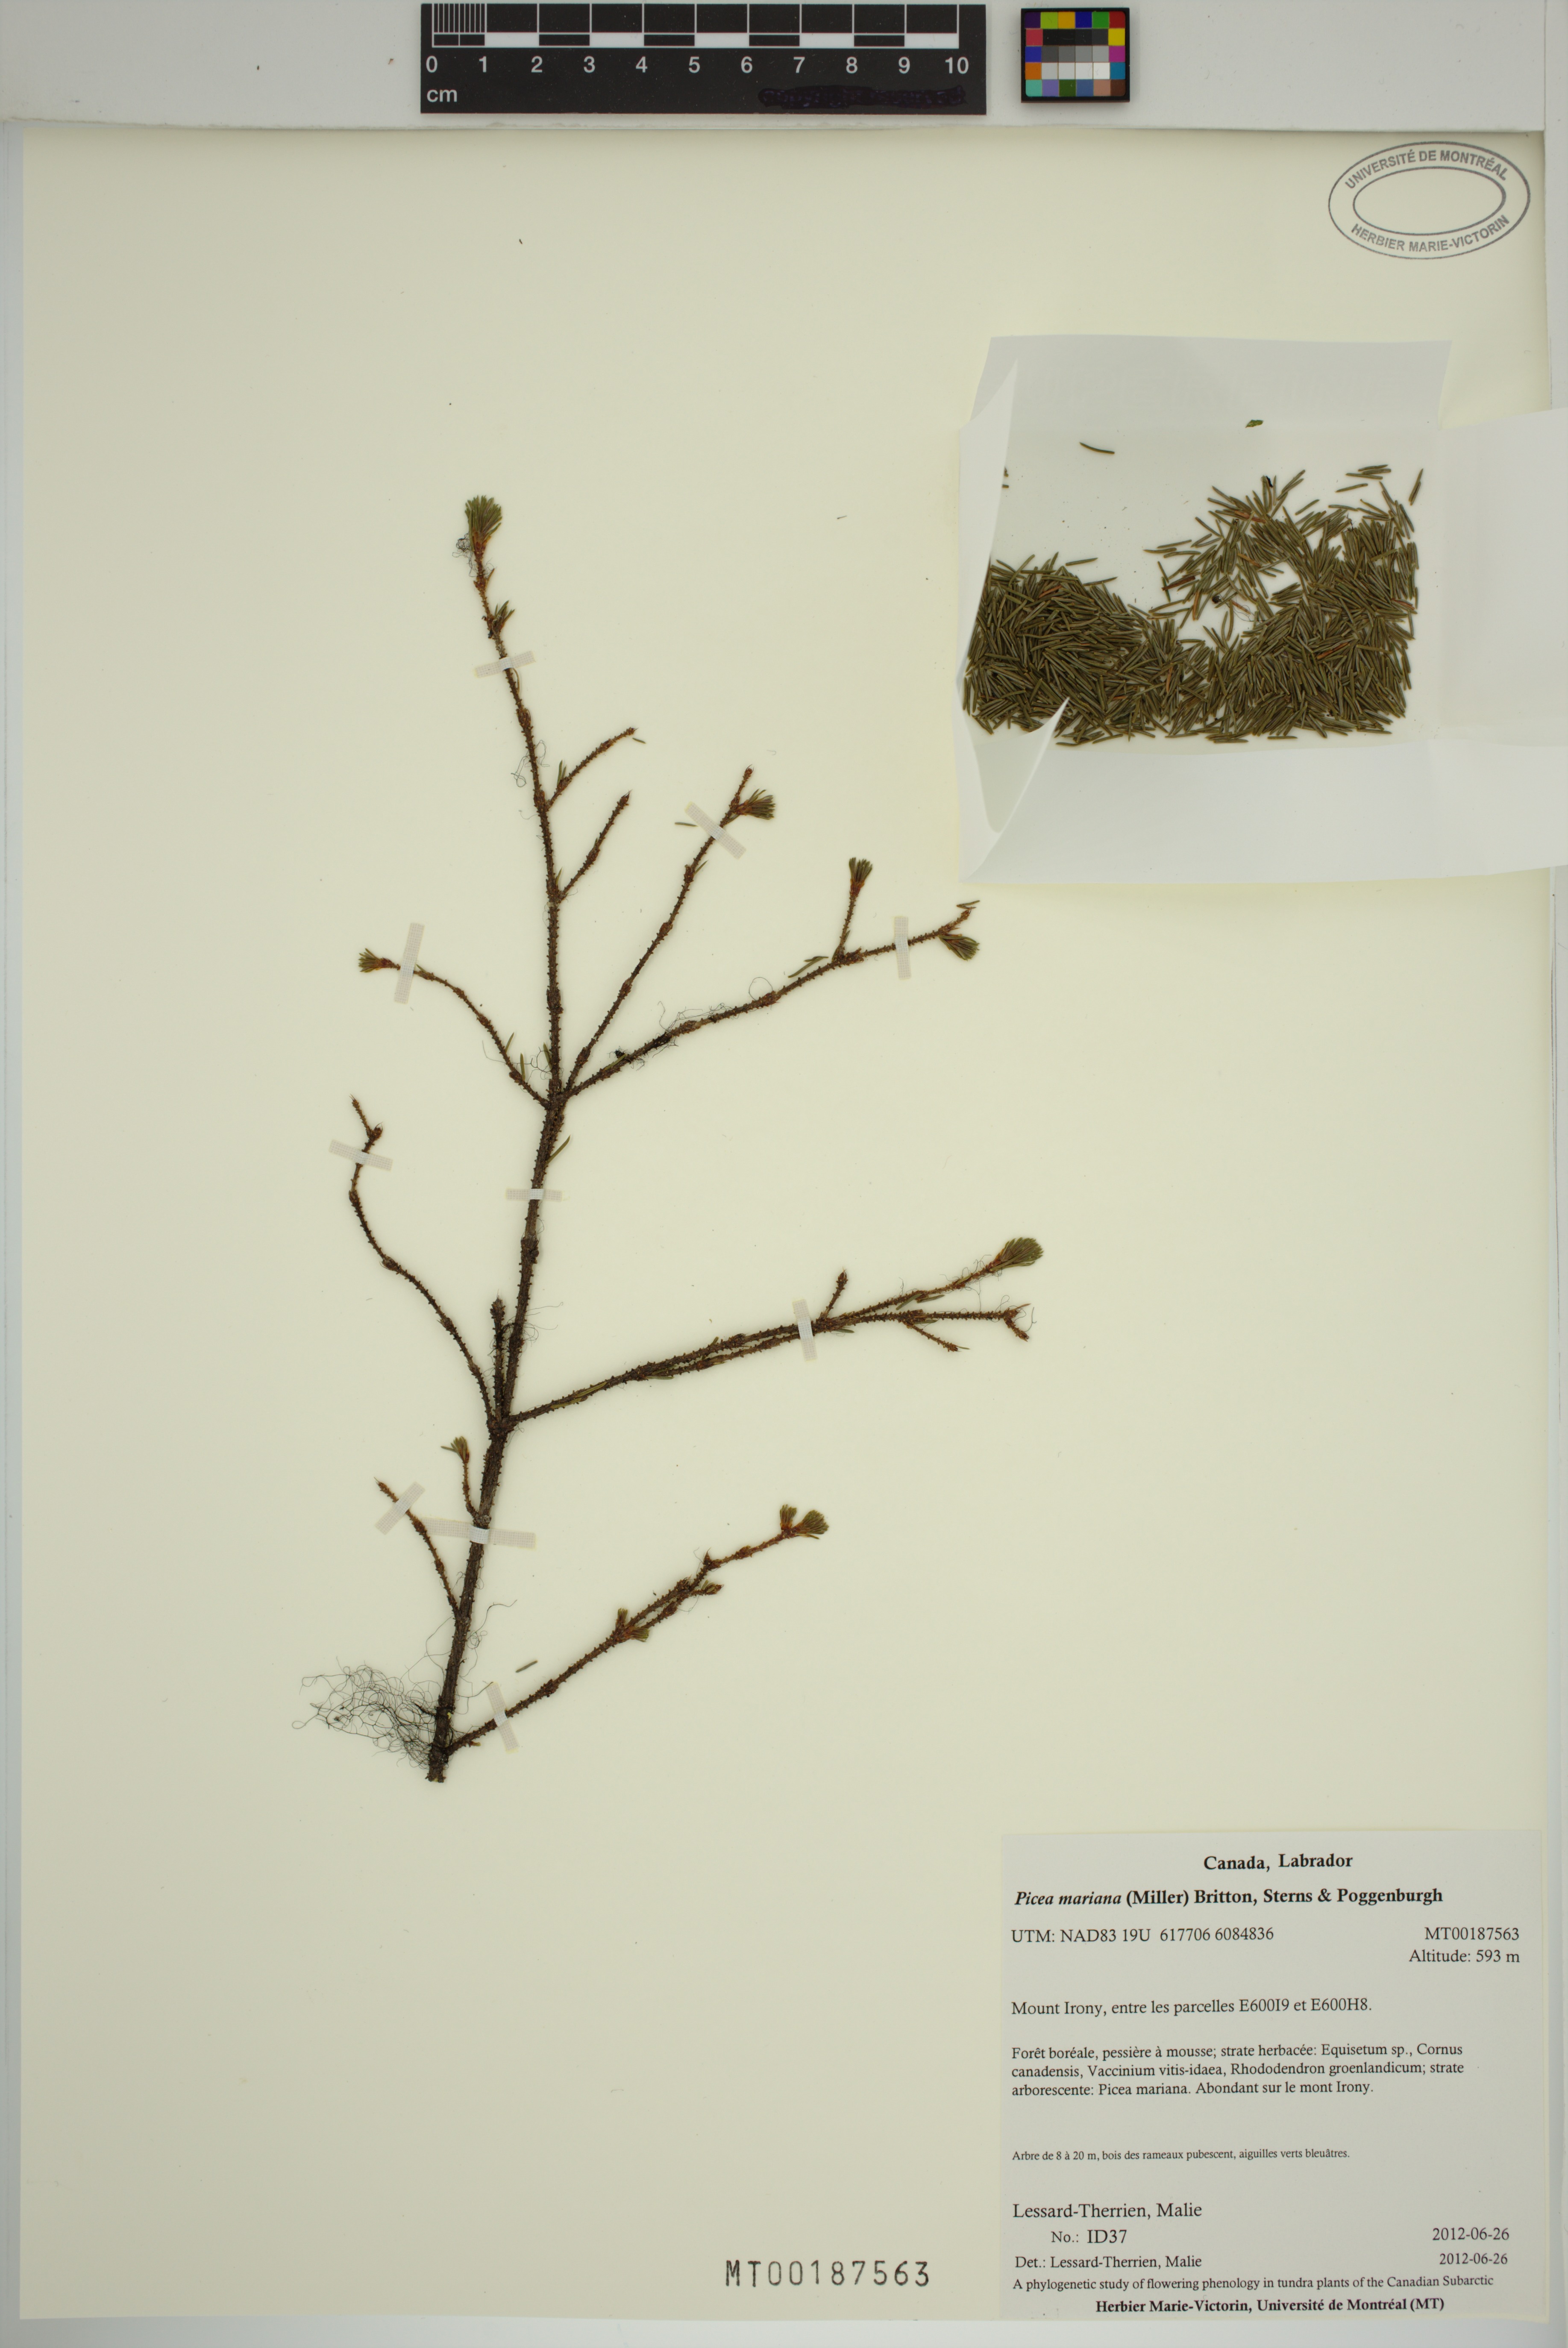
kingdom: Plantae
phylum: Tracheophyta
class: Pinopsida
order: Pinales
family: Pinaceae
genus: Picea
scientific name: Picea mariana
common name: Black spruce
